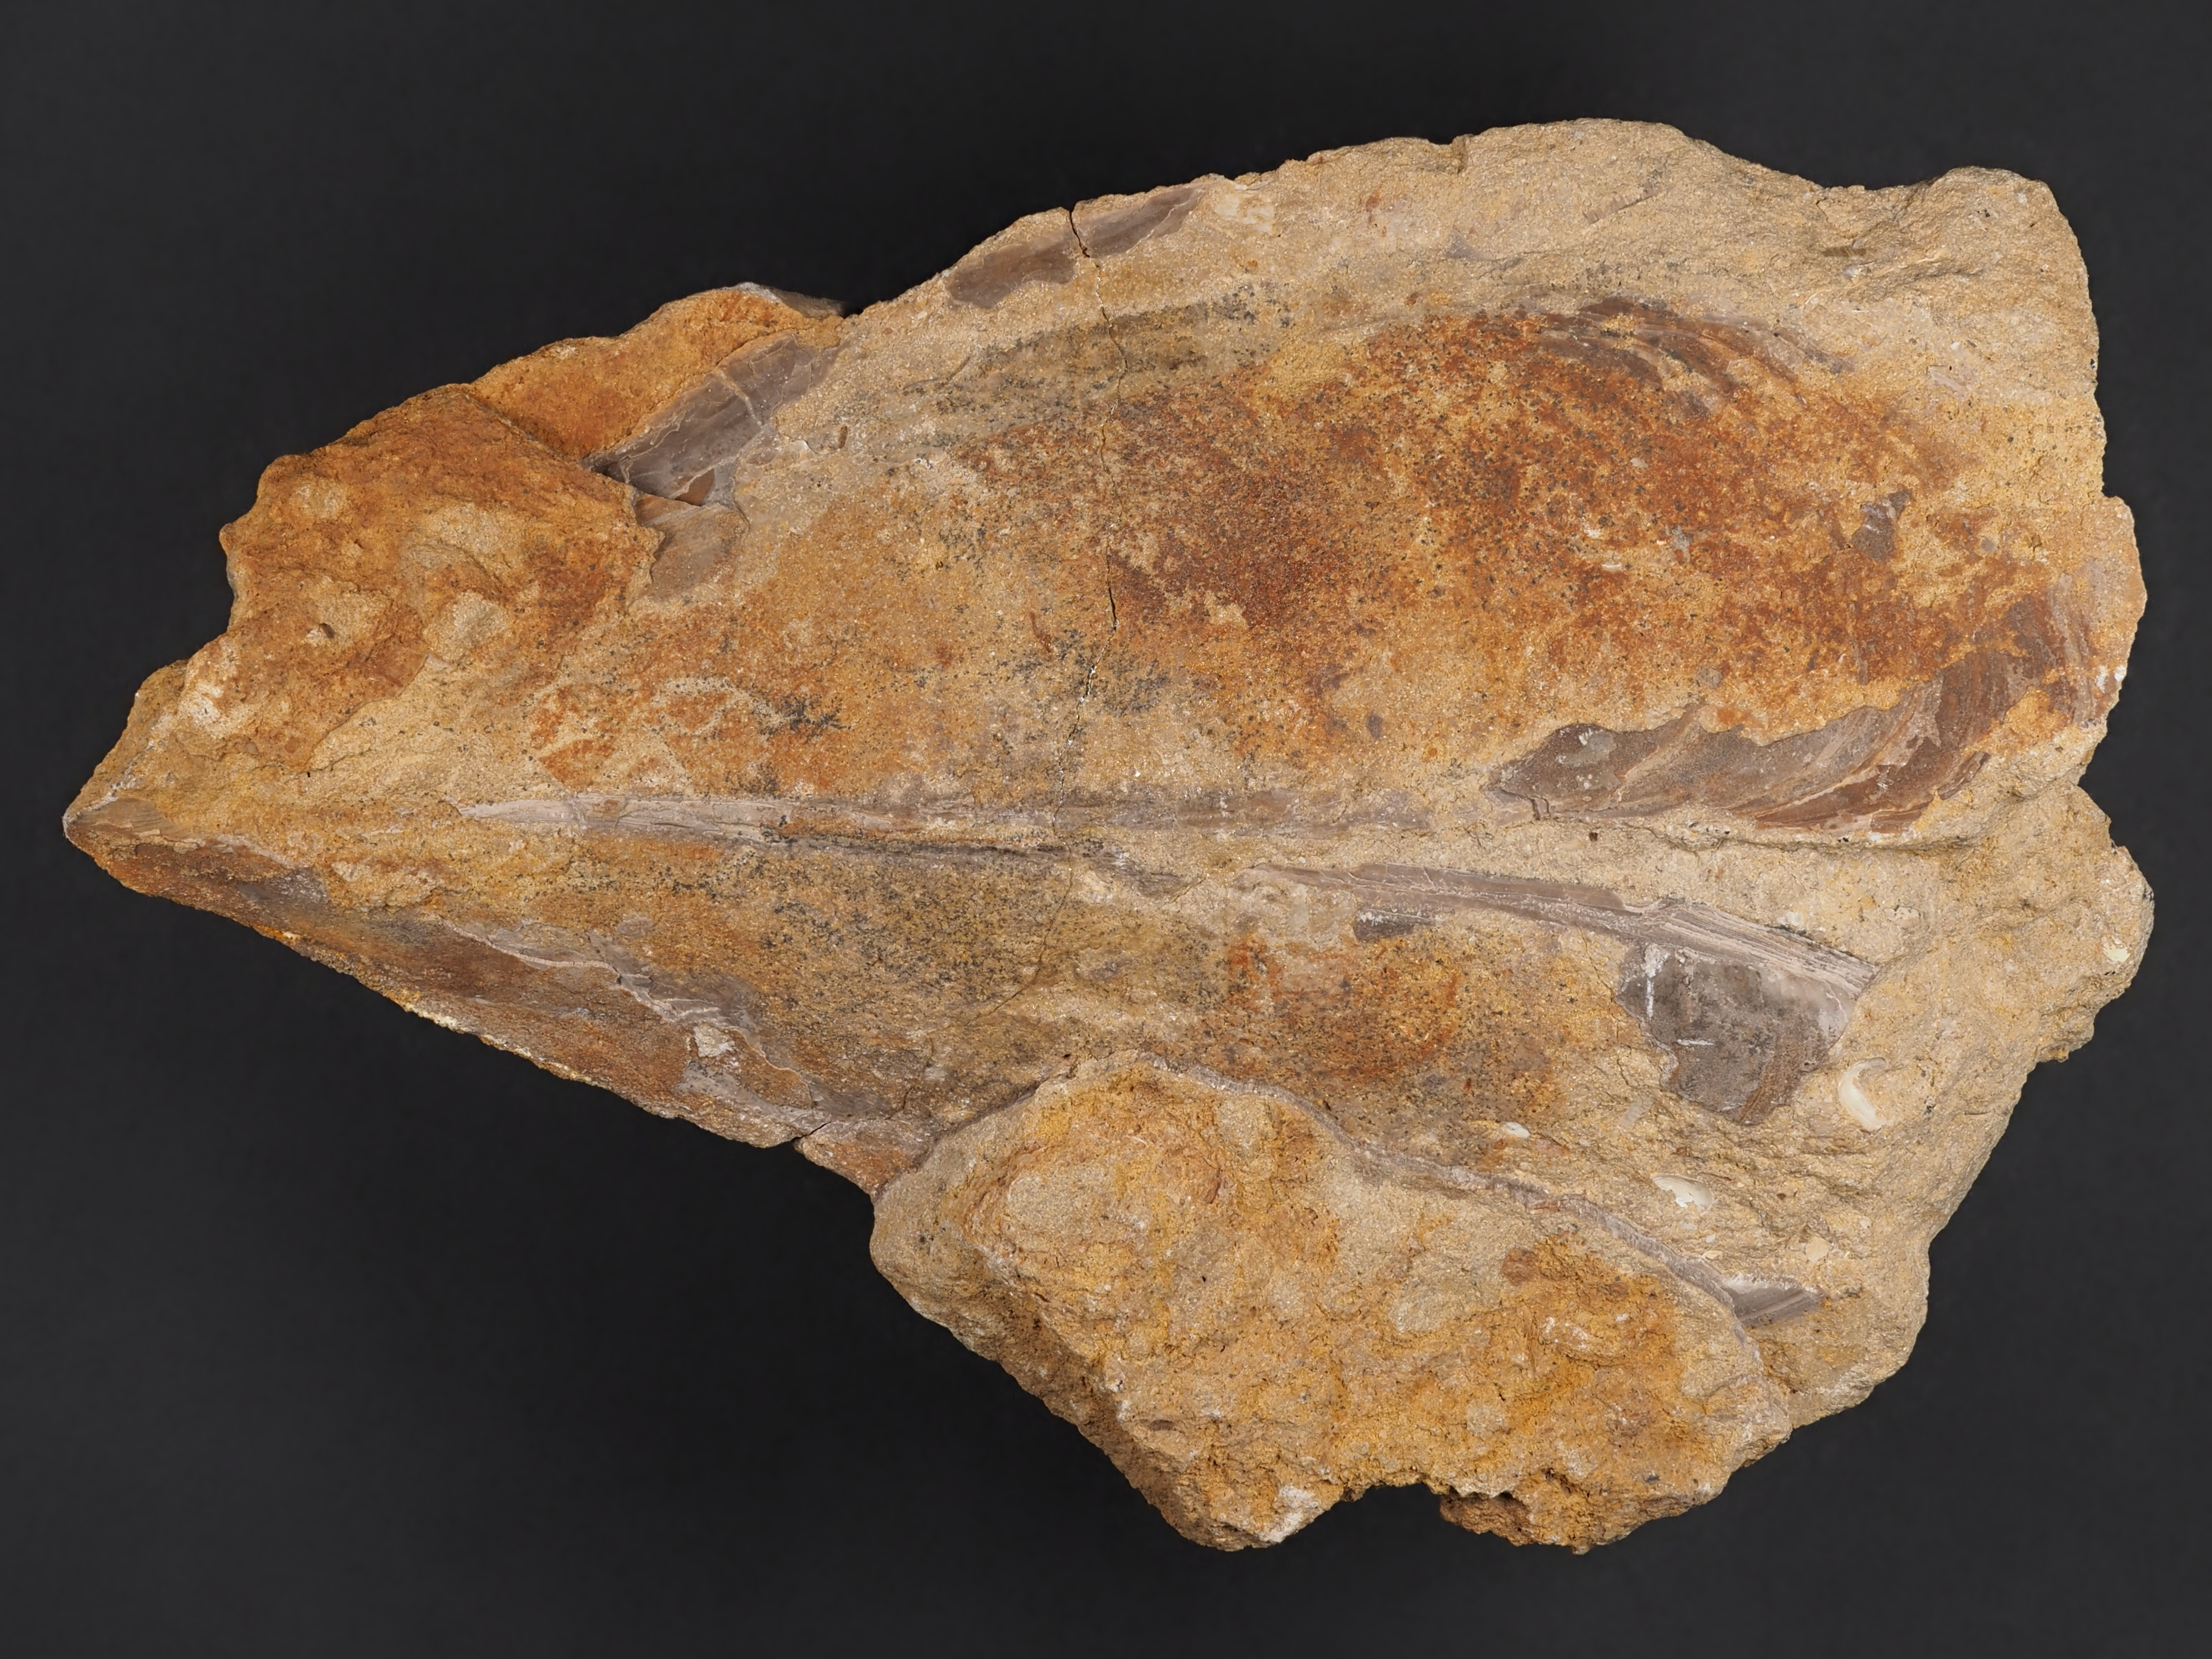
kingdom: Animalia
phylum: Mollusca
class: Bivalvia
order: Ostreida
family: Pinnidae
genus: Pinna
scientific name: Pinna
